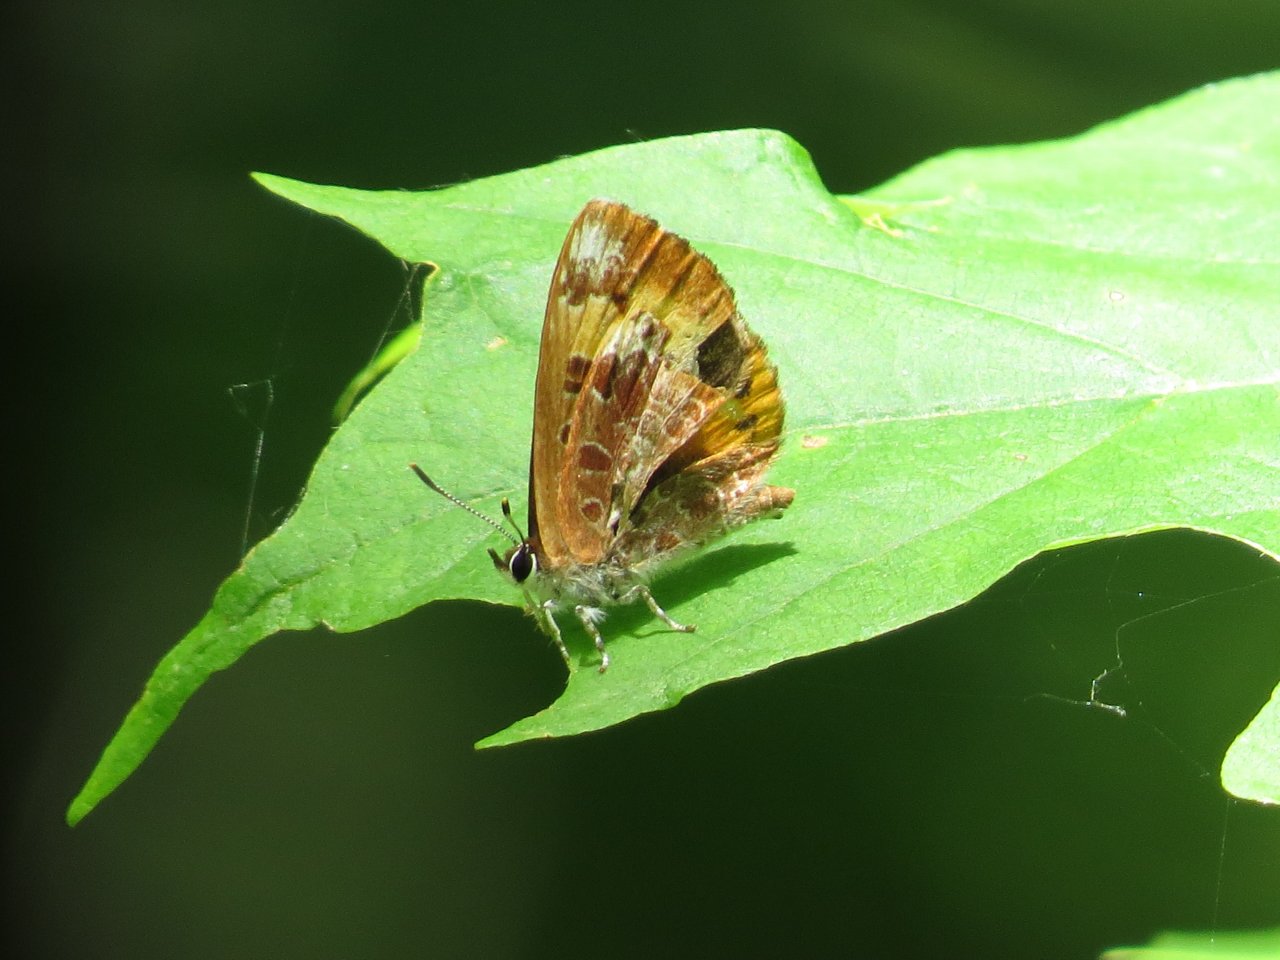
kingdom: Animalia
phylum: Arthropoda
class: Insecta
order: Lepidoptera
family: Lycaenidae
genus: Feniseca
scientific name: Feniseca tarquinius
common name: Harvester
